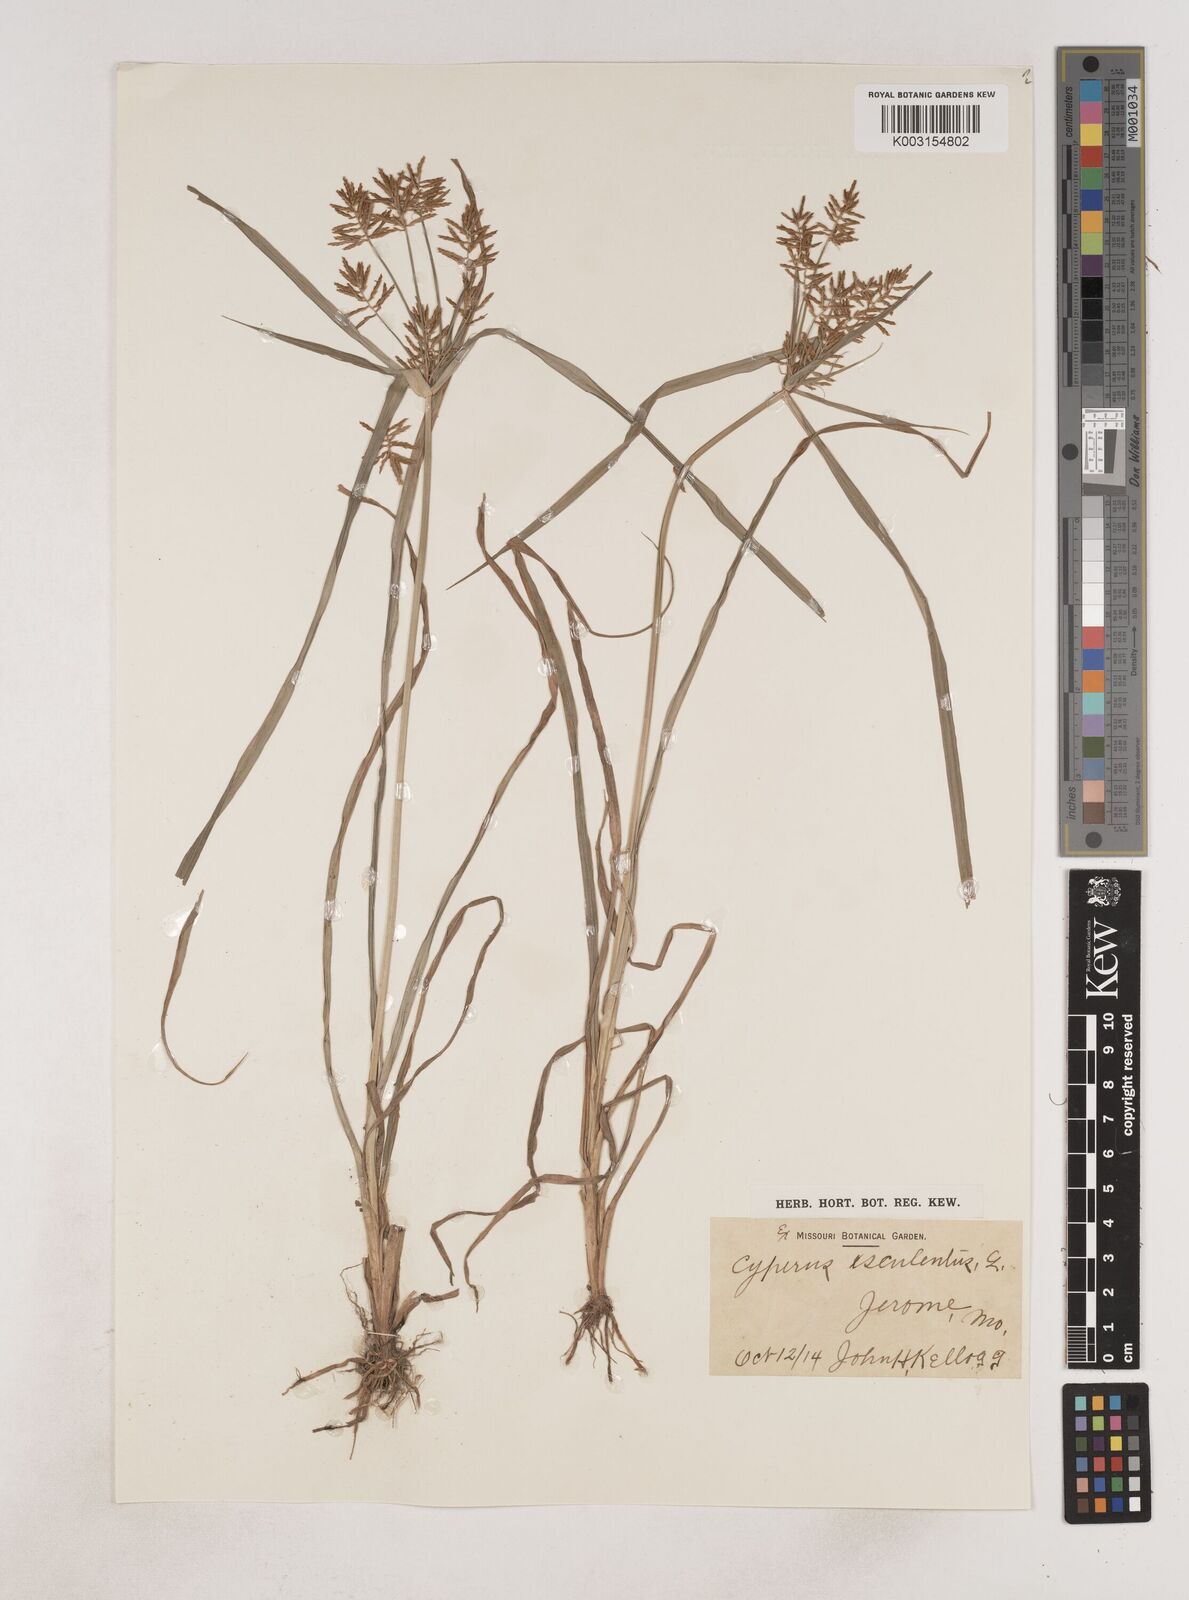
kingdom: Plantae
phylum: Tracheophyta
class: Liliopsida
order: Poales
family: Cyperaceae
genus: Cyperus
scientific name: Cyperus esculentus
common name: Yellow nutsedge
